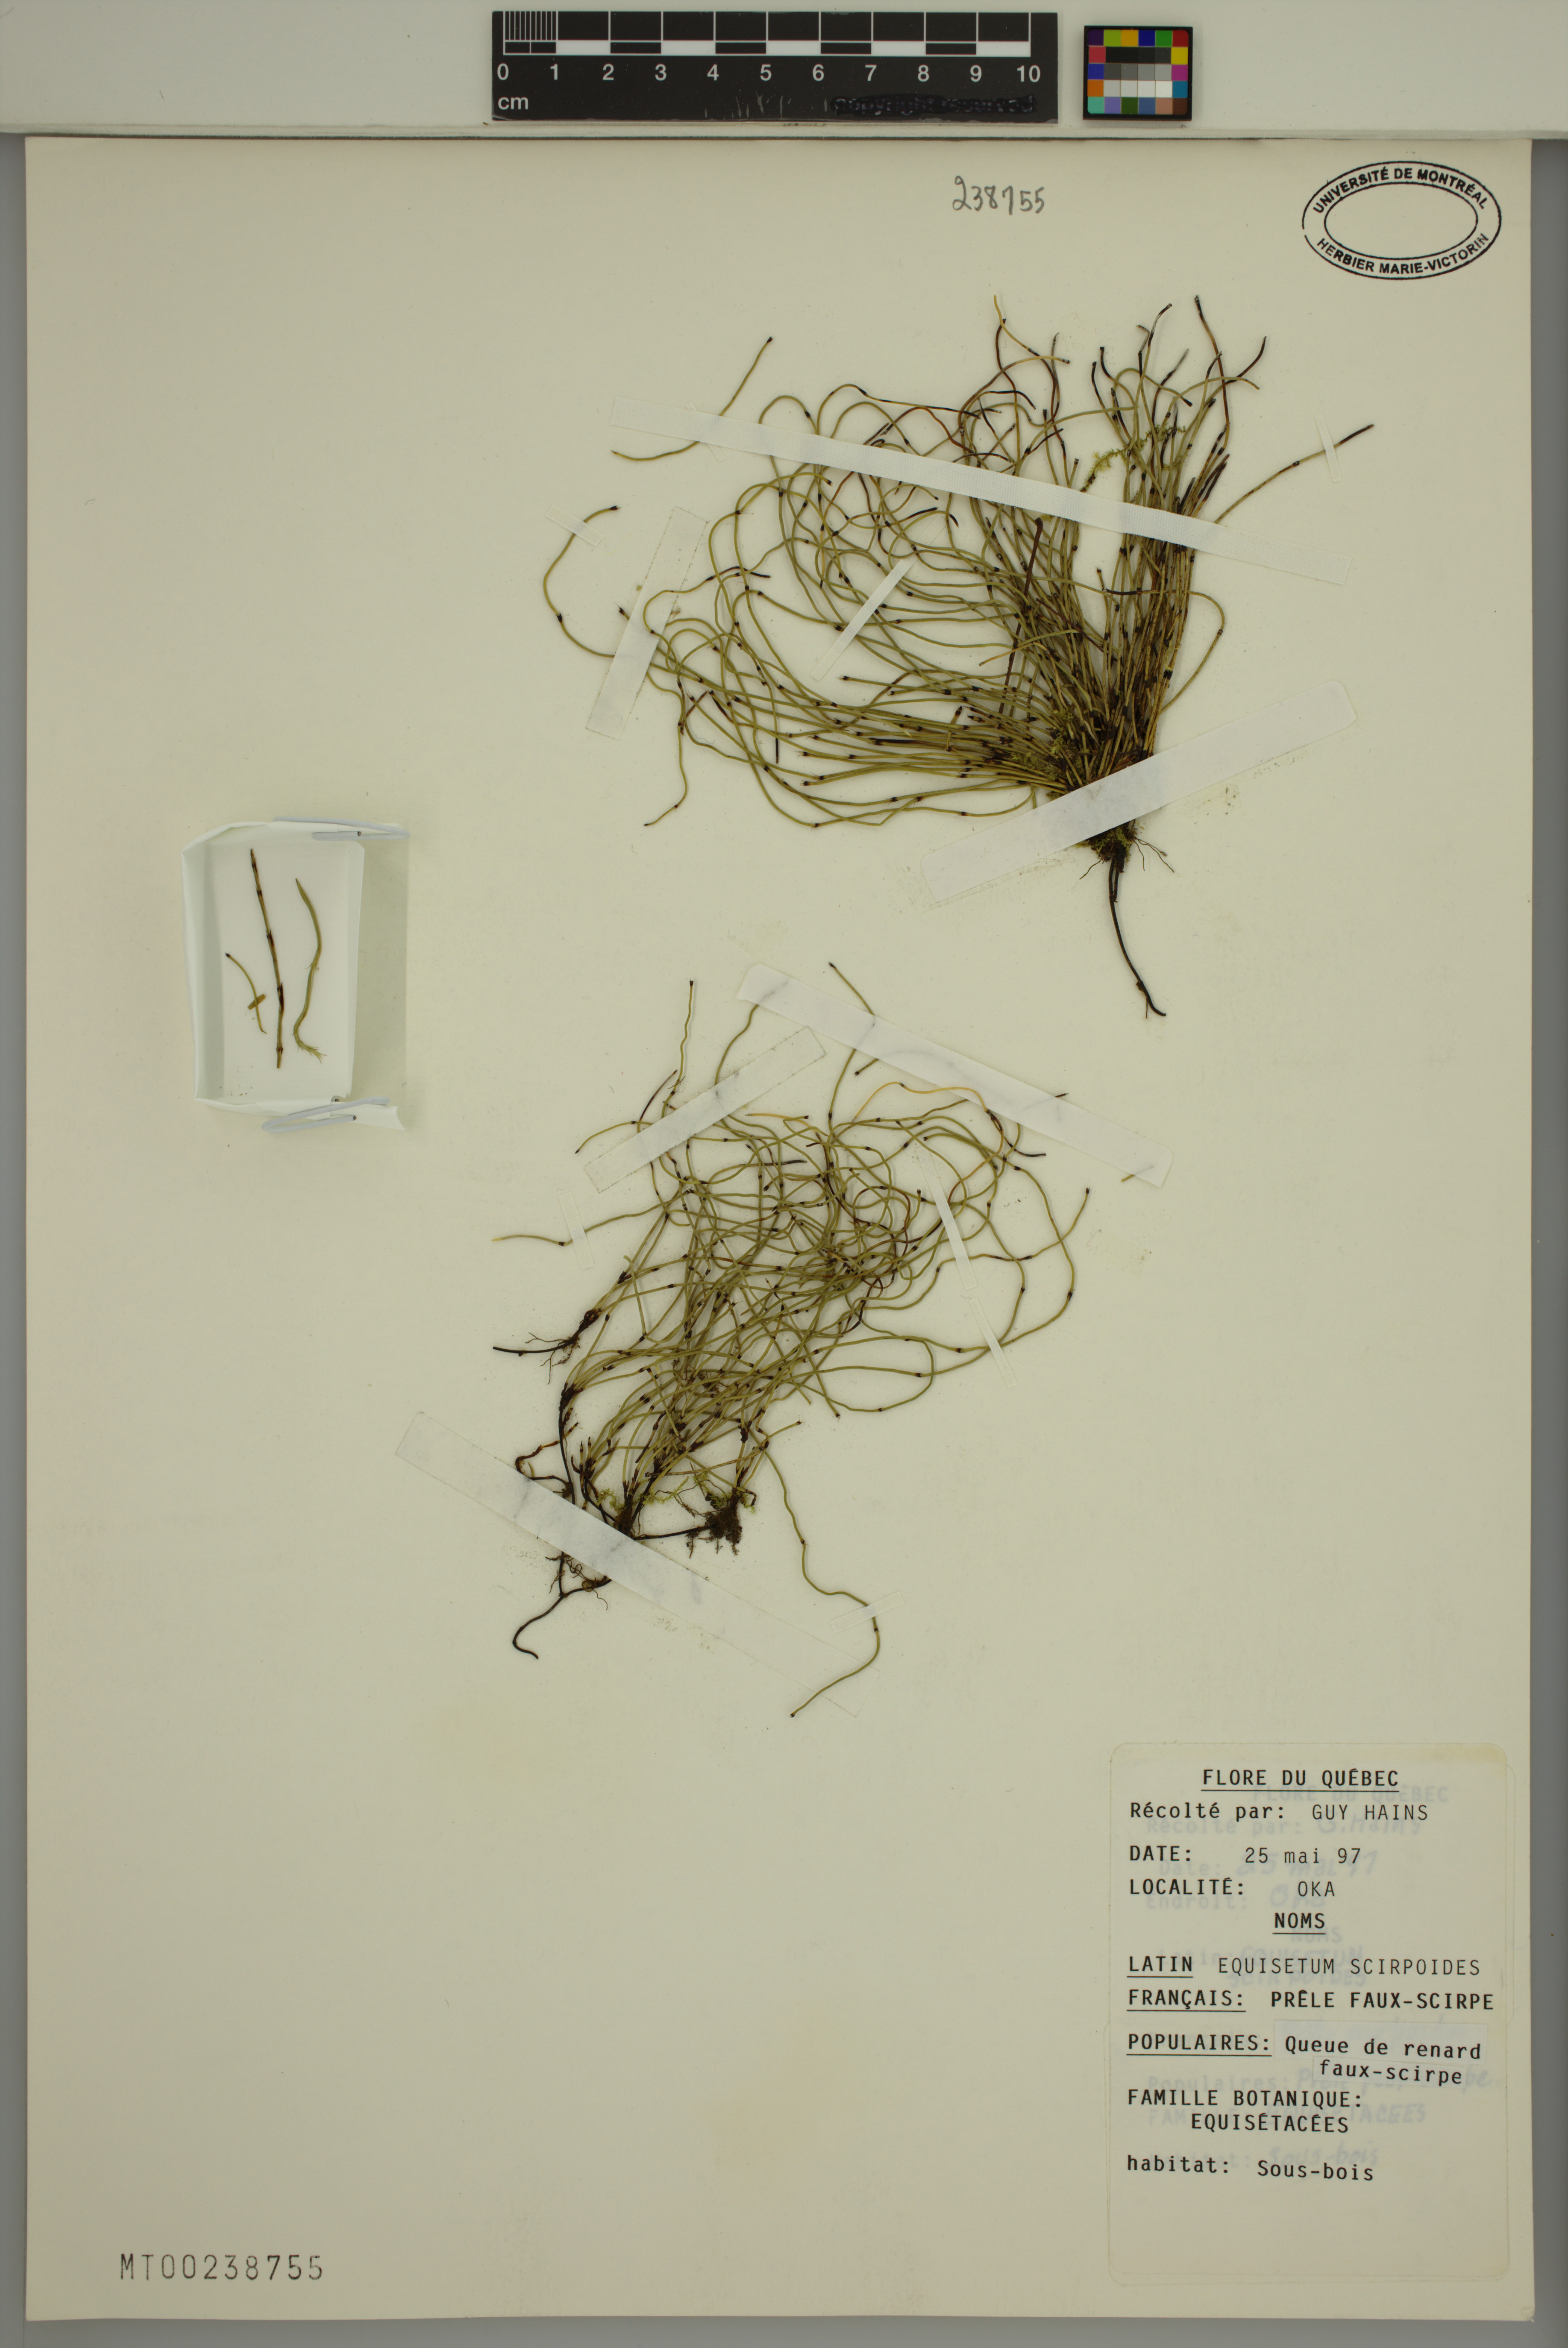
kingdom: Plantae
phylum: Tracheophyta
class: Polypodiopsida
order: Equisetales
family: Equisetaceae
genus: Equisetum
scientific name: Equisetum scirpoides
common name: Delicate horsetail
